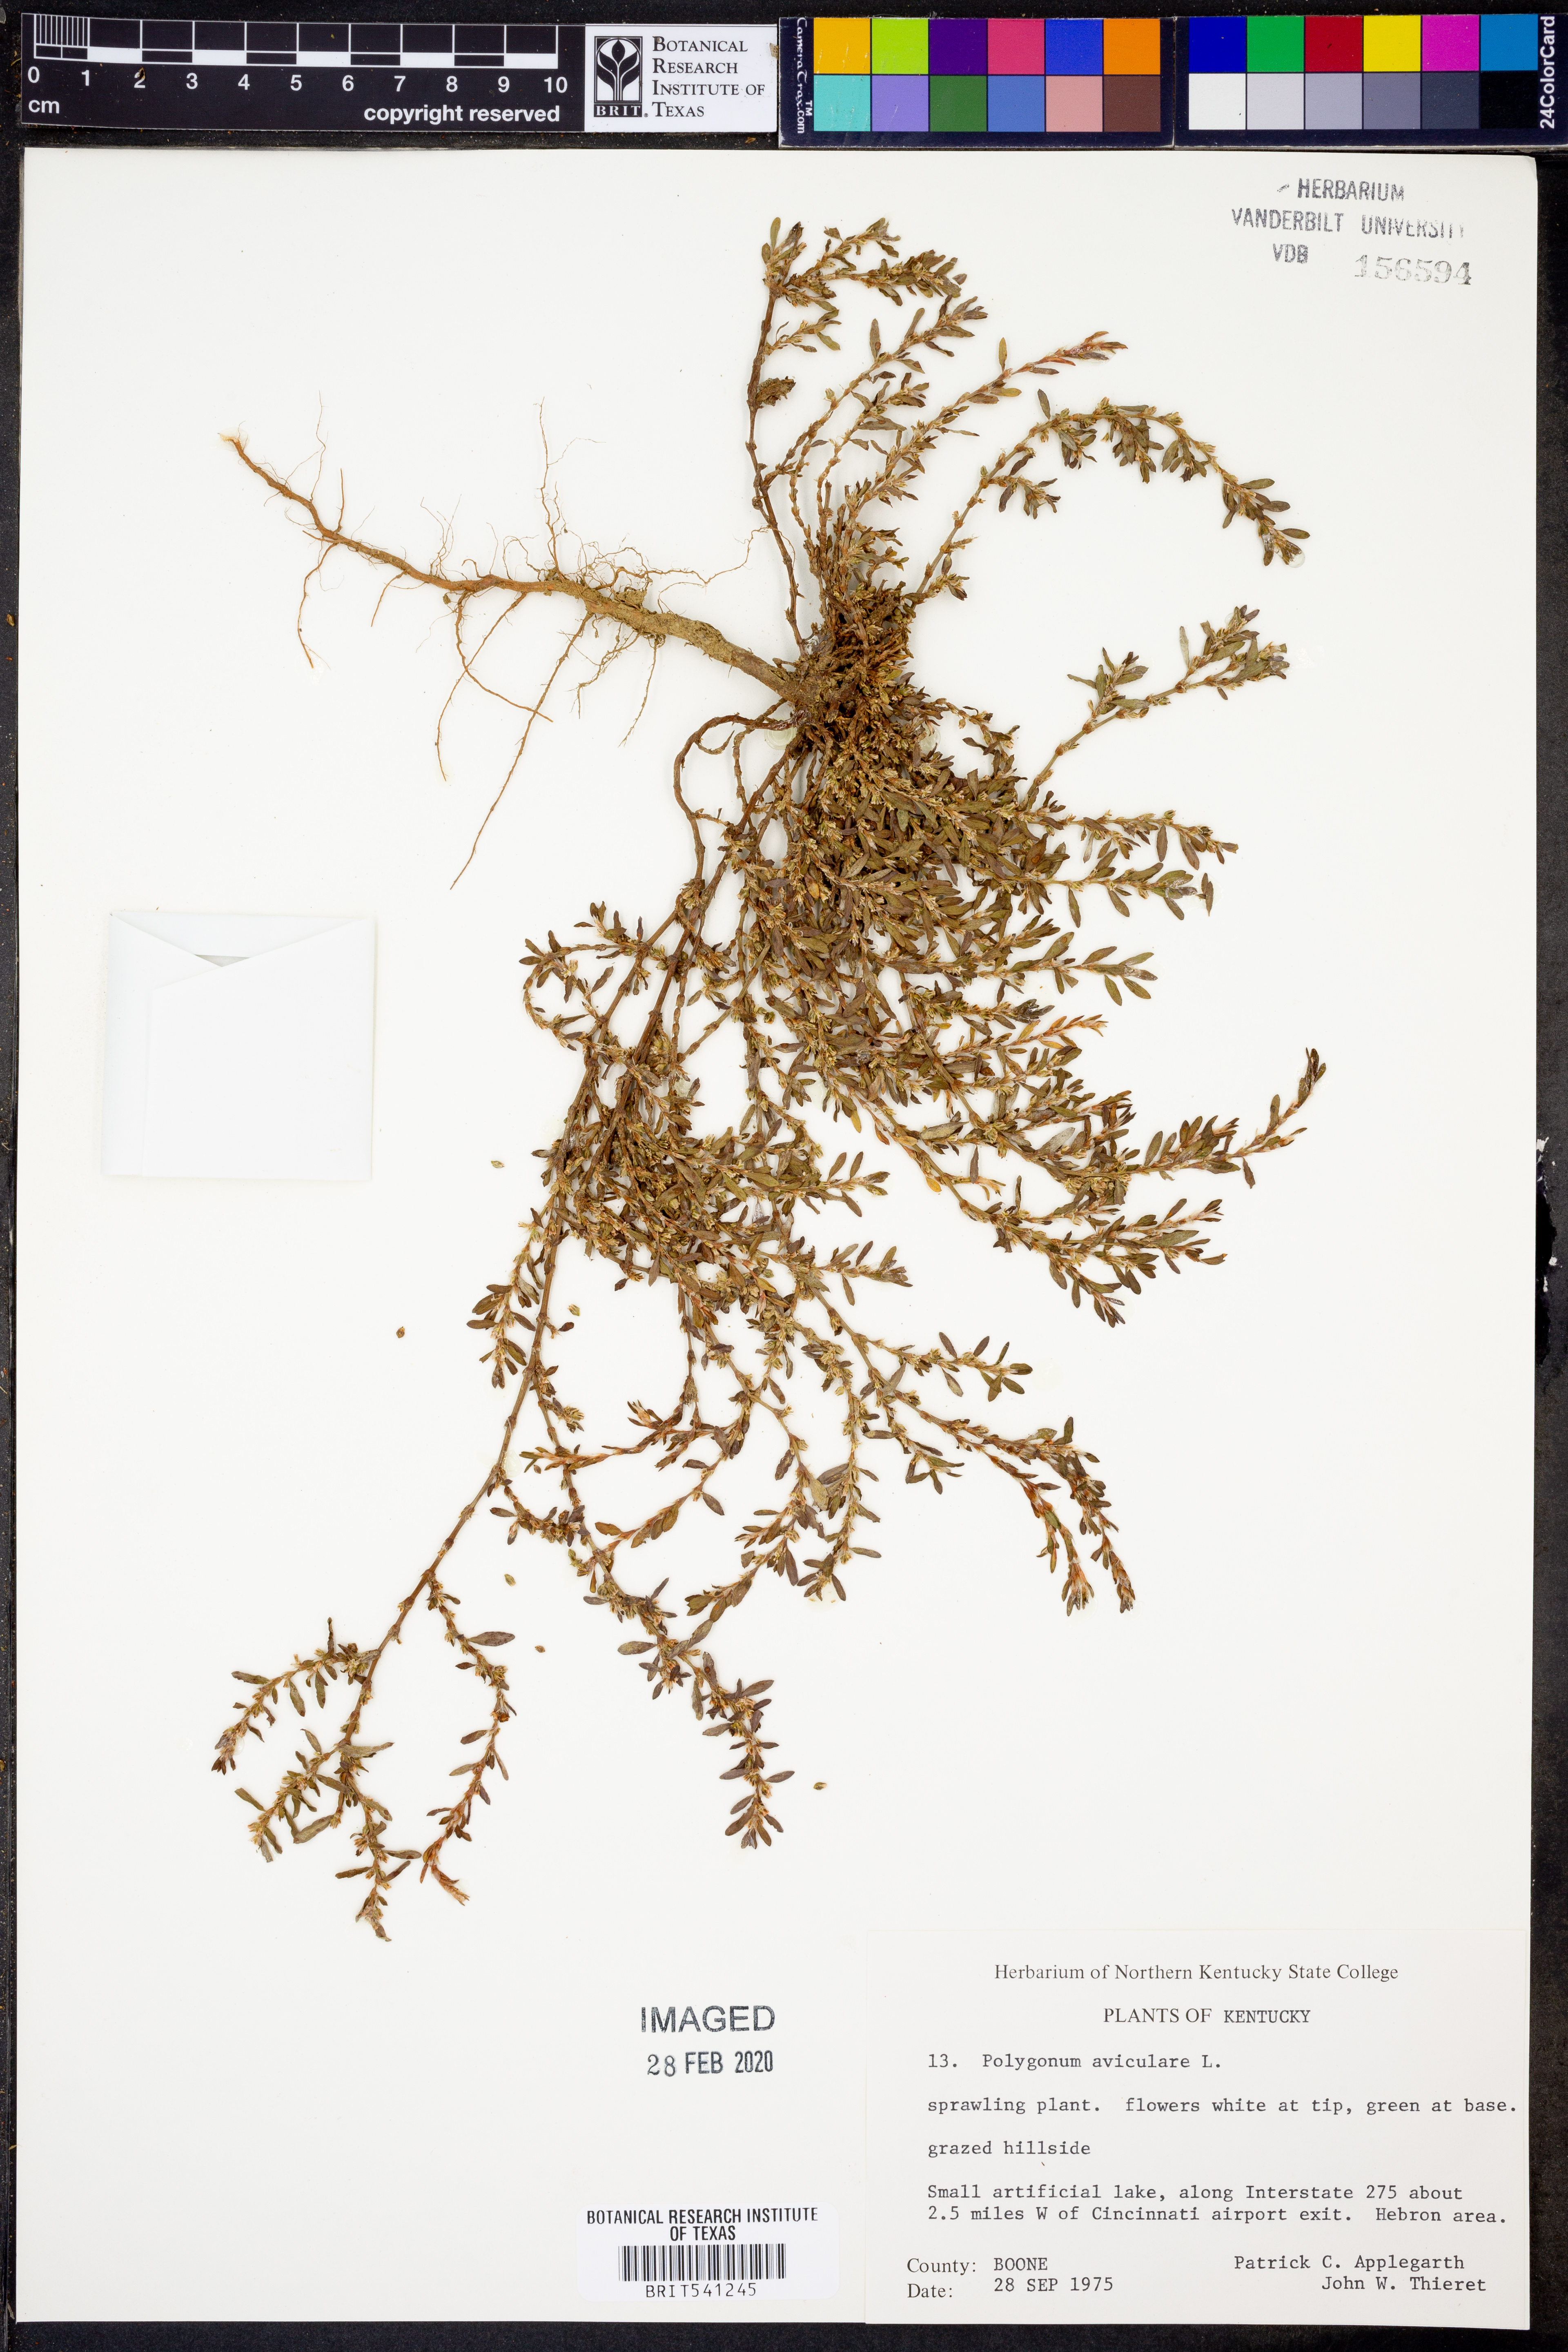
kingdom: Plantae
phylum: Tracheophyta
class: Magnoliopsida
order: Caryophyllales
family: Polygonaceae
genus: Polygonum
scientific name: Polygonum aviculare
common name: Prostrate knotweed
